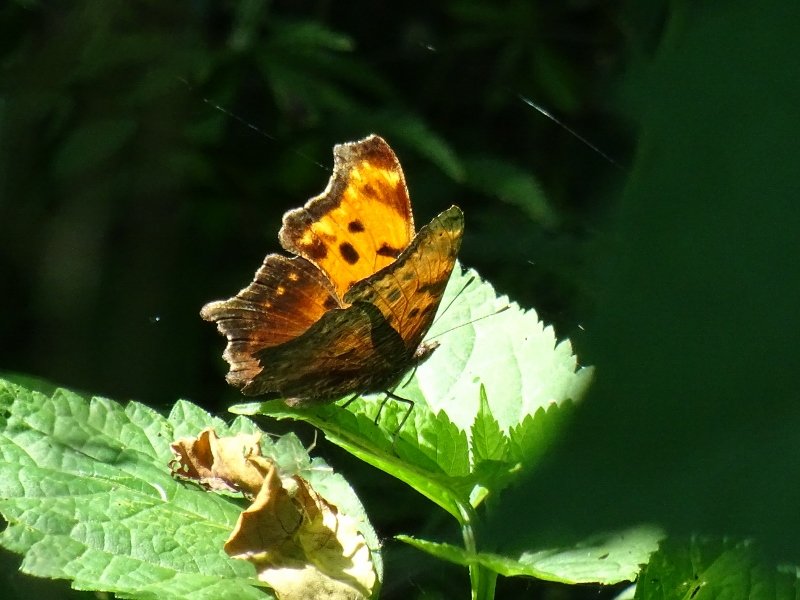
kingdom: Animalia
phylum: Arthropoda
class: Insecta
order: Lepidoptera
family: Nymphalidae
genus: Polygonia
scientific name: Polygonia progne
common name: Gray Comma
